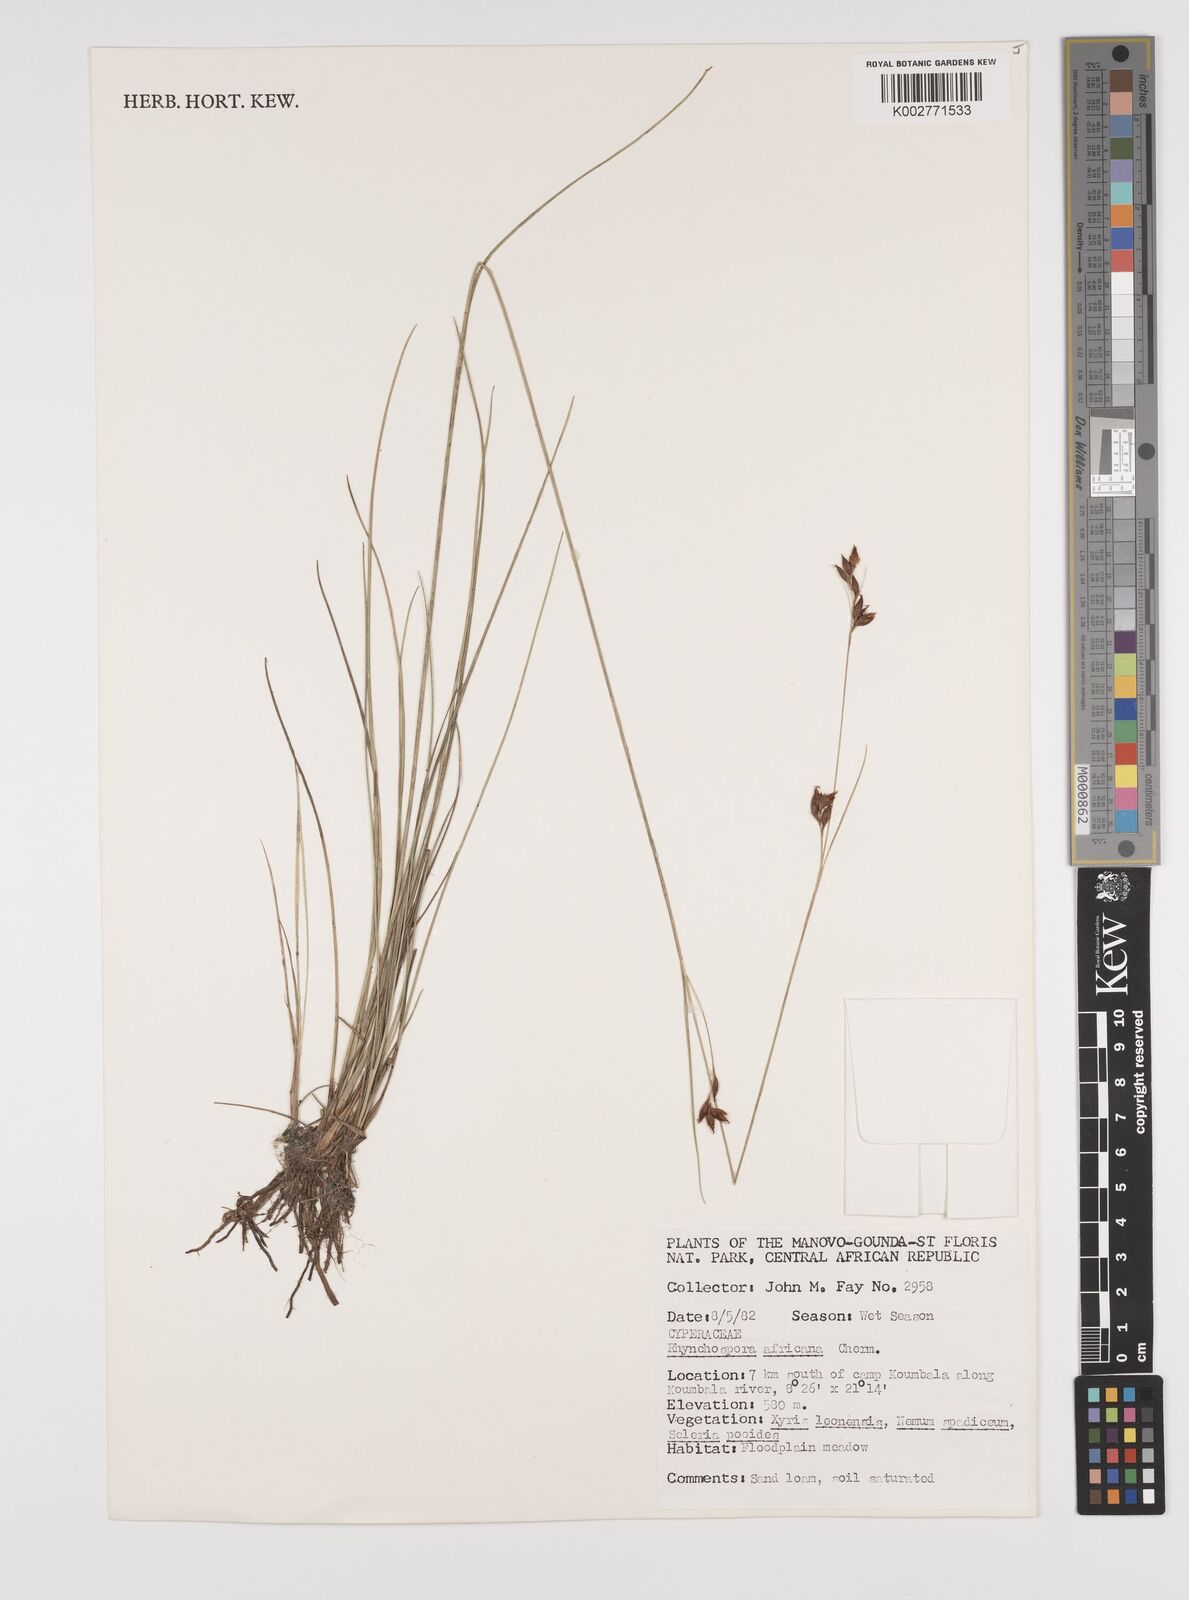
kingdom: Plantae
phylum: Tracheophyta
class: Liliopsida
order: Poales
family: Cyperaceae
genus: Rhynchospora
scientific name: Rhynchospora angolensis
